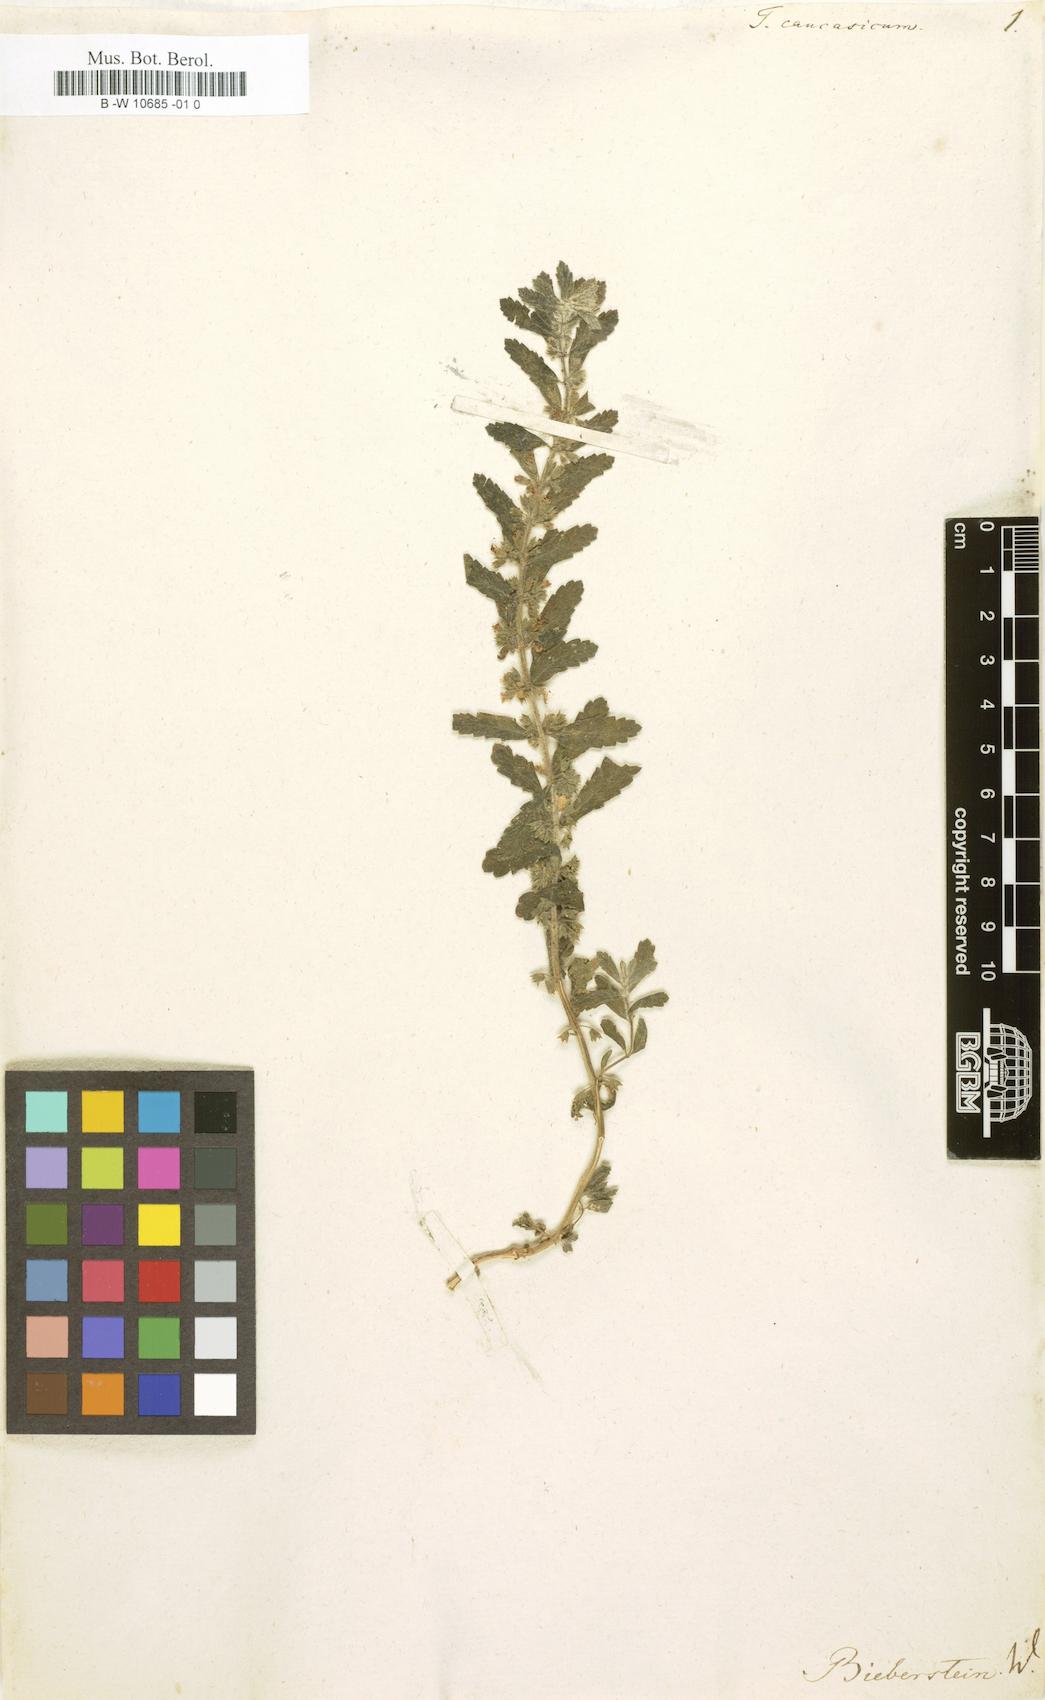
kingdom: Plantae
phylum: Tracheophyta
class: Magnoliopsida
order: Lamiales
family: Lamiaceae
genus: Teucrium
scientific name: Teucrium scordium
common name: Water germander
